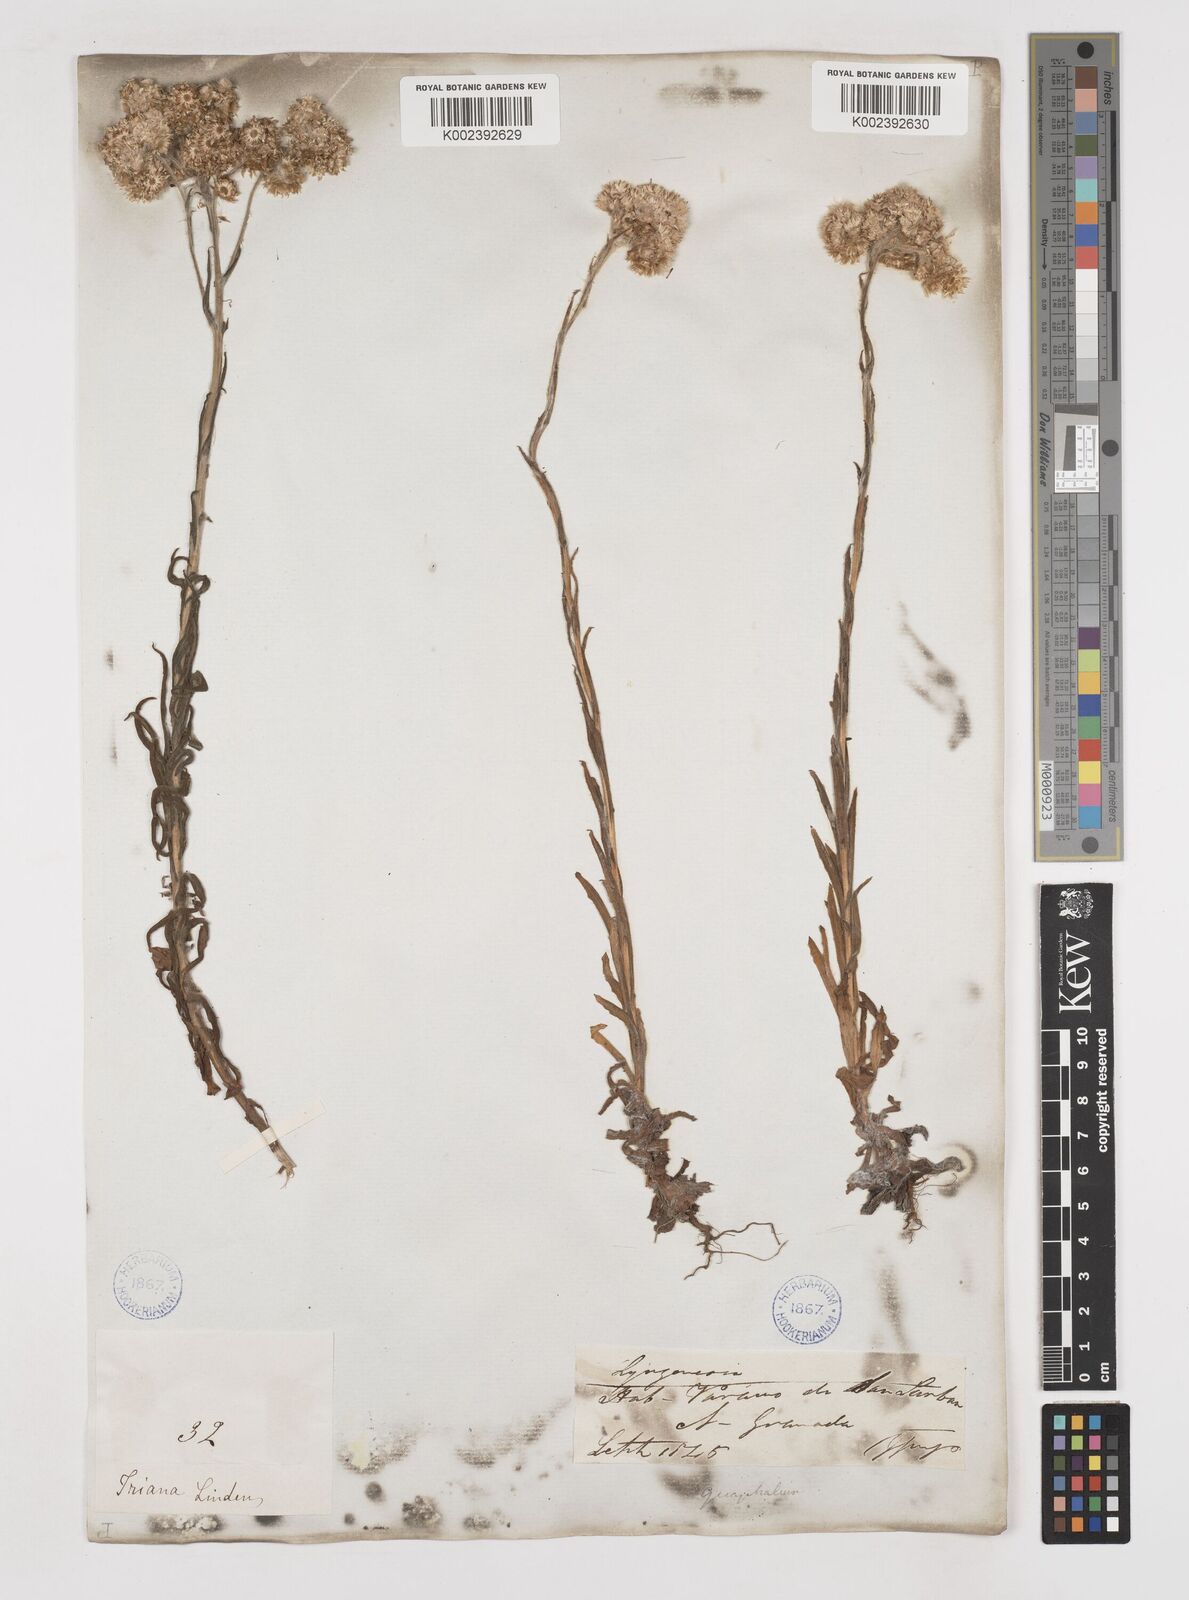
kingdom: Plantae
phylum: Tracheophyta
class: Magnoliopsida
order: Asterales
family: Asteraceae
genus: Gnaphalium
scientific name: Gnaphalium
